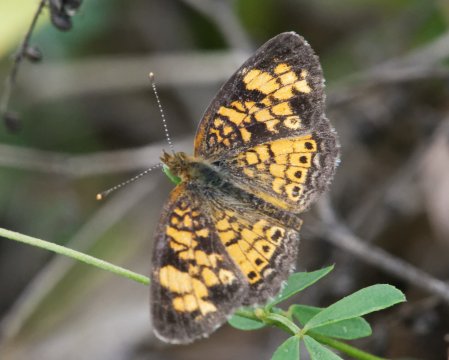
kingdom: Animalia
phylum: Arthropoda
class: Insecta
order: Lepidoptera
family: Nymphalidae
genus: Phyciodes
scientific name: Phyciodes
